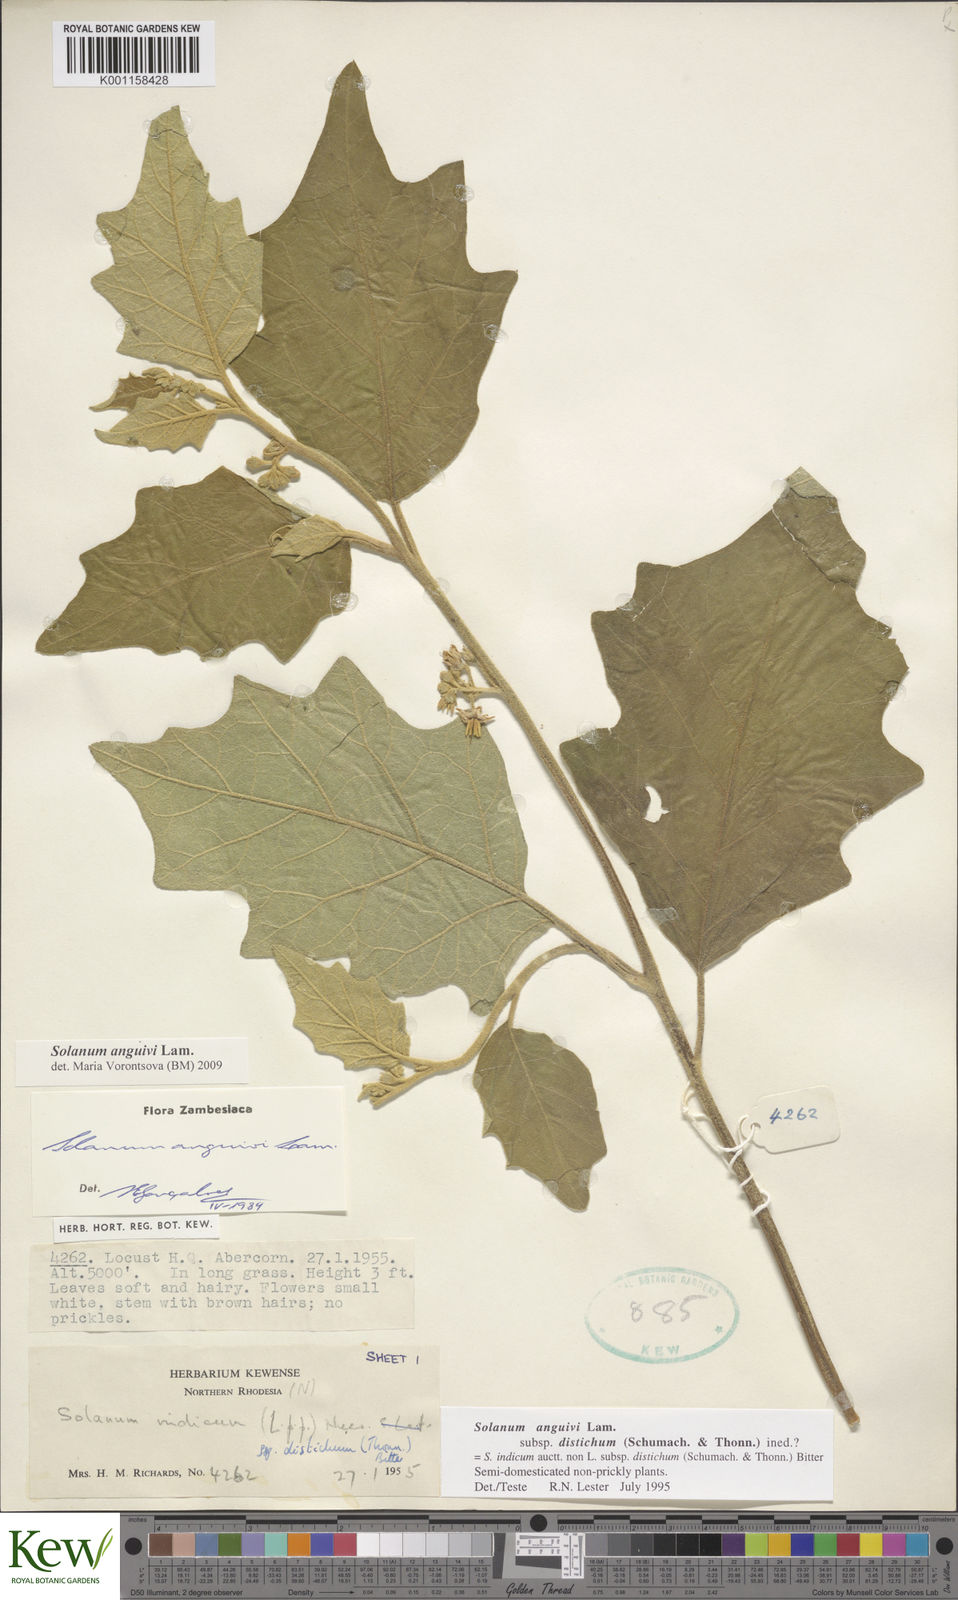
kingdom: Plantae
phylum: Tracheophyta
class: Magnoliopsida
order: Solanales
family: Solanaceae
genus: Solanum
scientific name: Solanum anguivi
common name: Forest bitterberry
